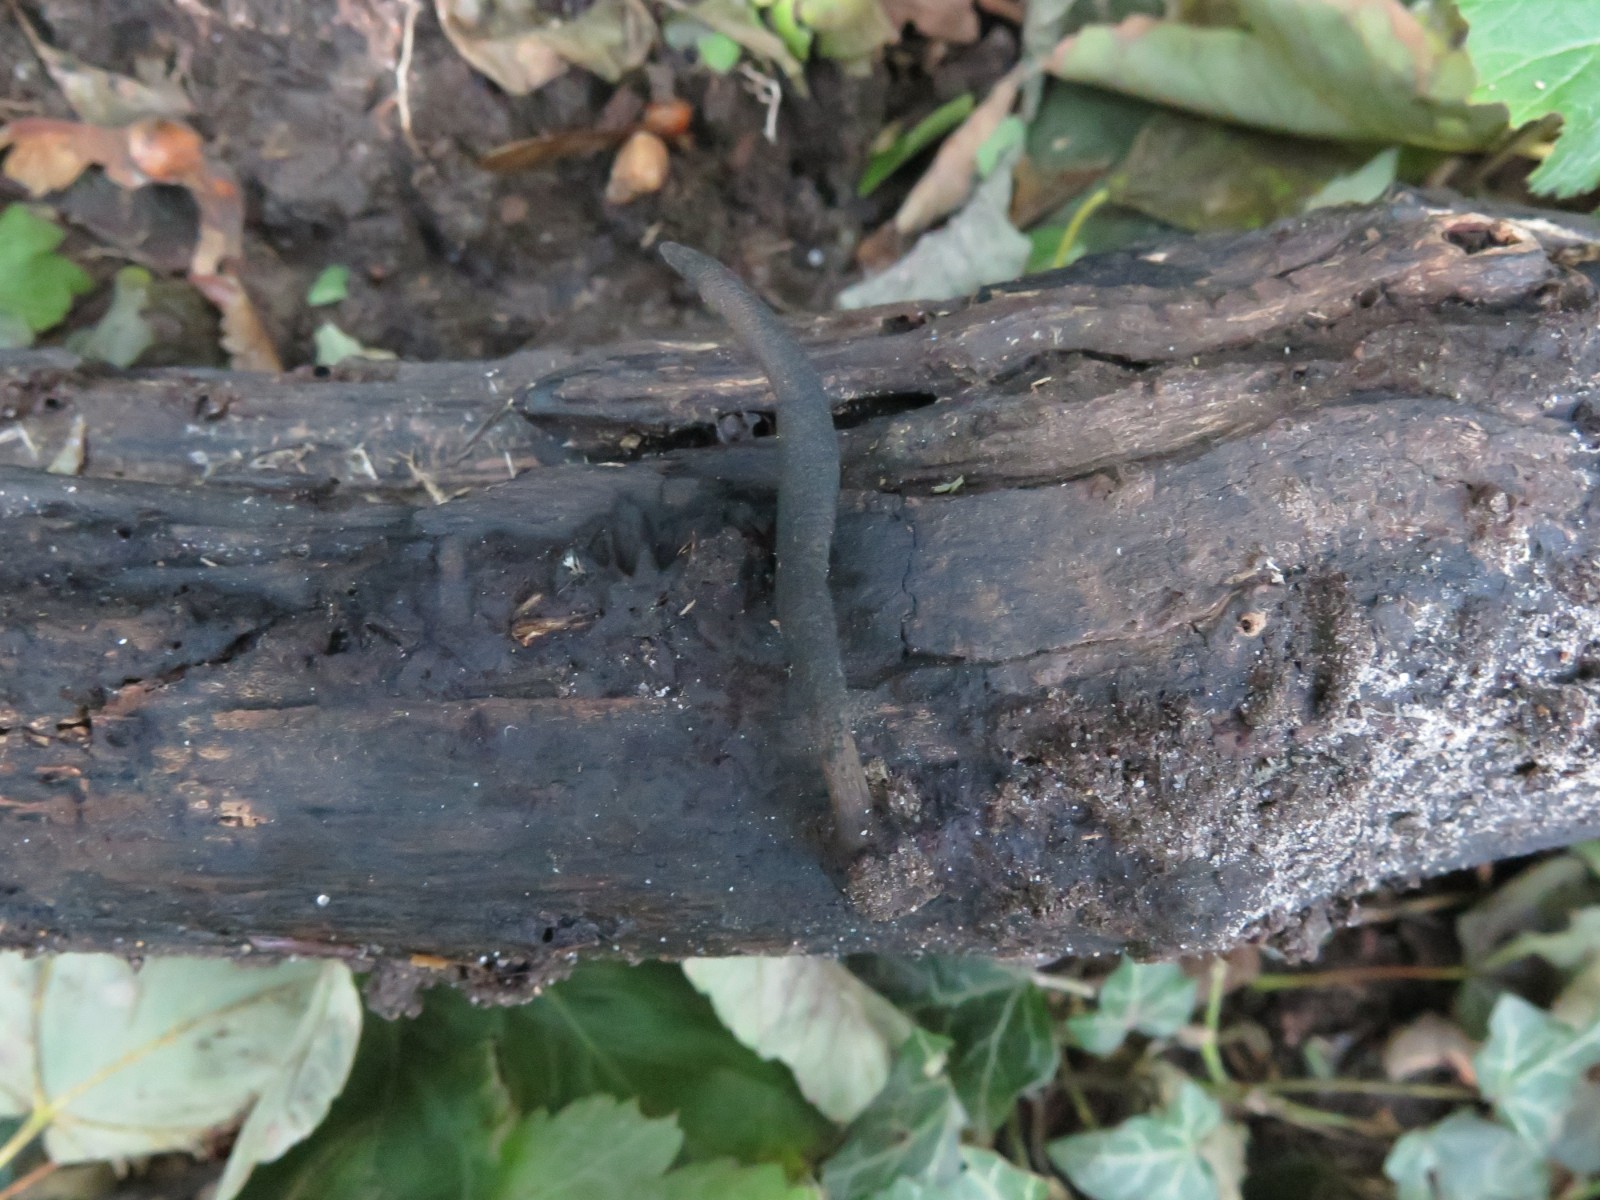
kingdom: Fungi
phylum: Ascomycota
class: Sordariomycetes
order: Xylariales
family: Xylariaceae
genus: Xylaria
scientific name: Xylaria longipes
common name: slank stødsvamp
